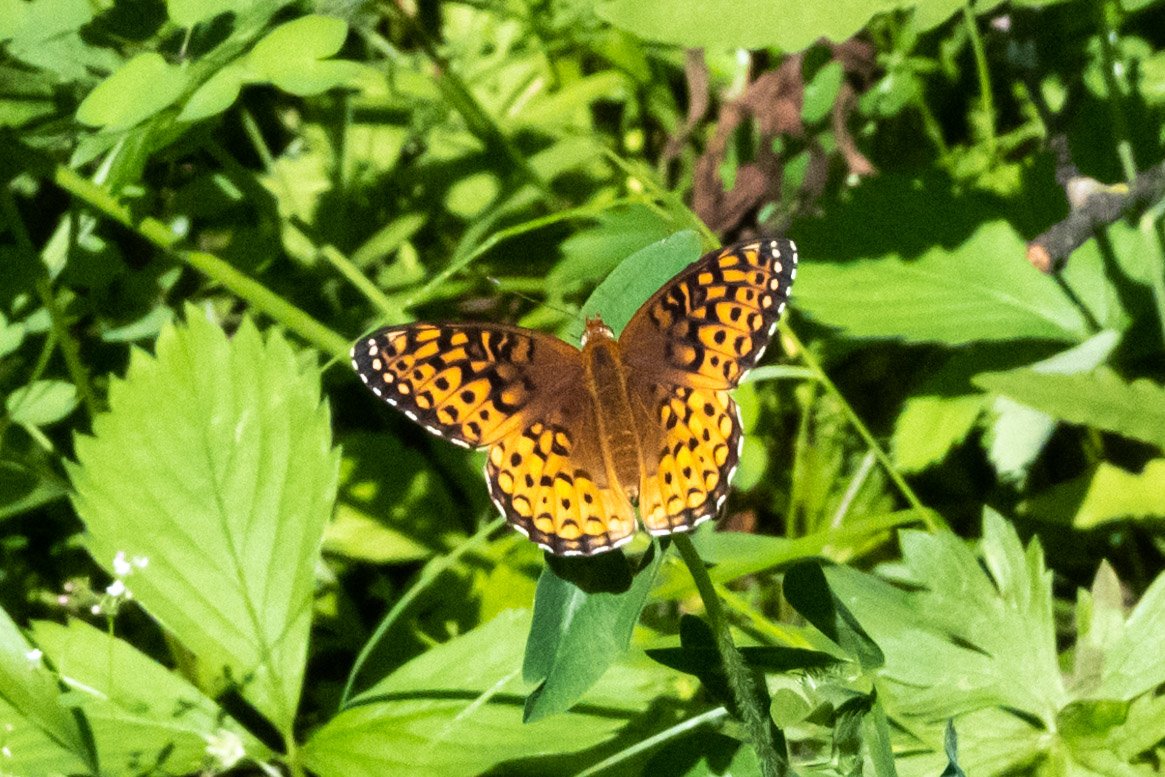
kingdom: Animalia
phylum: Arthropoda
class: Insecta
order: Lepidoptera
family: Nymphalidae
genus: Speyeria
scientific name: Speyeria atlantis
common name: Atlantis Fritillary
